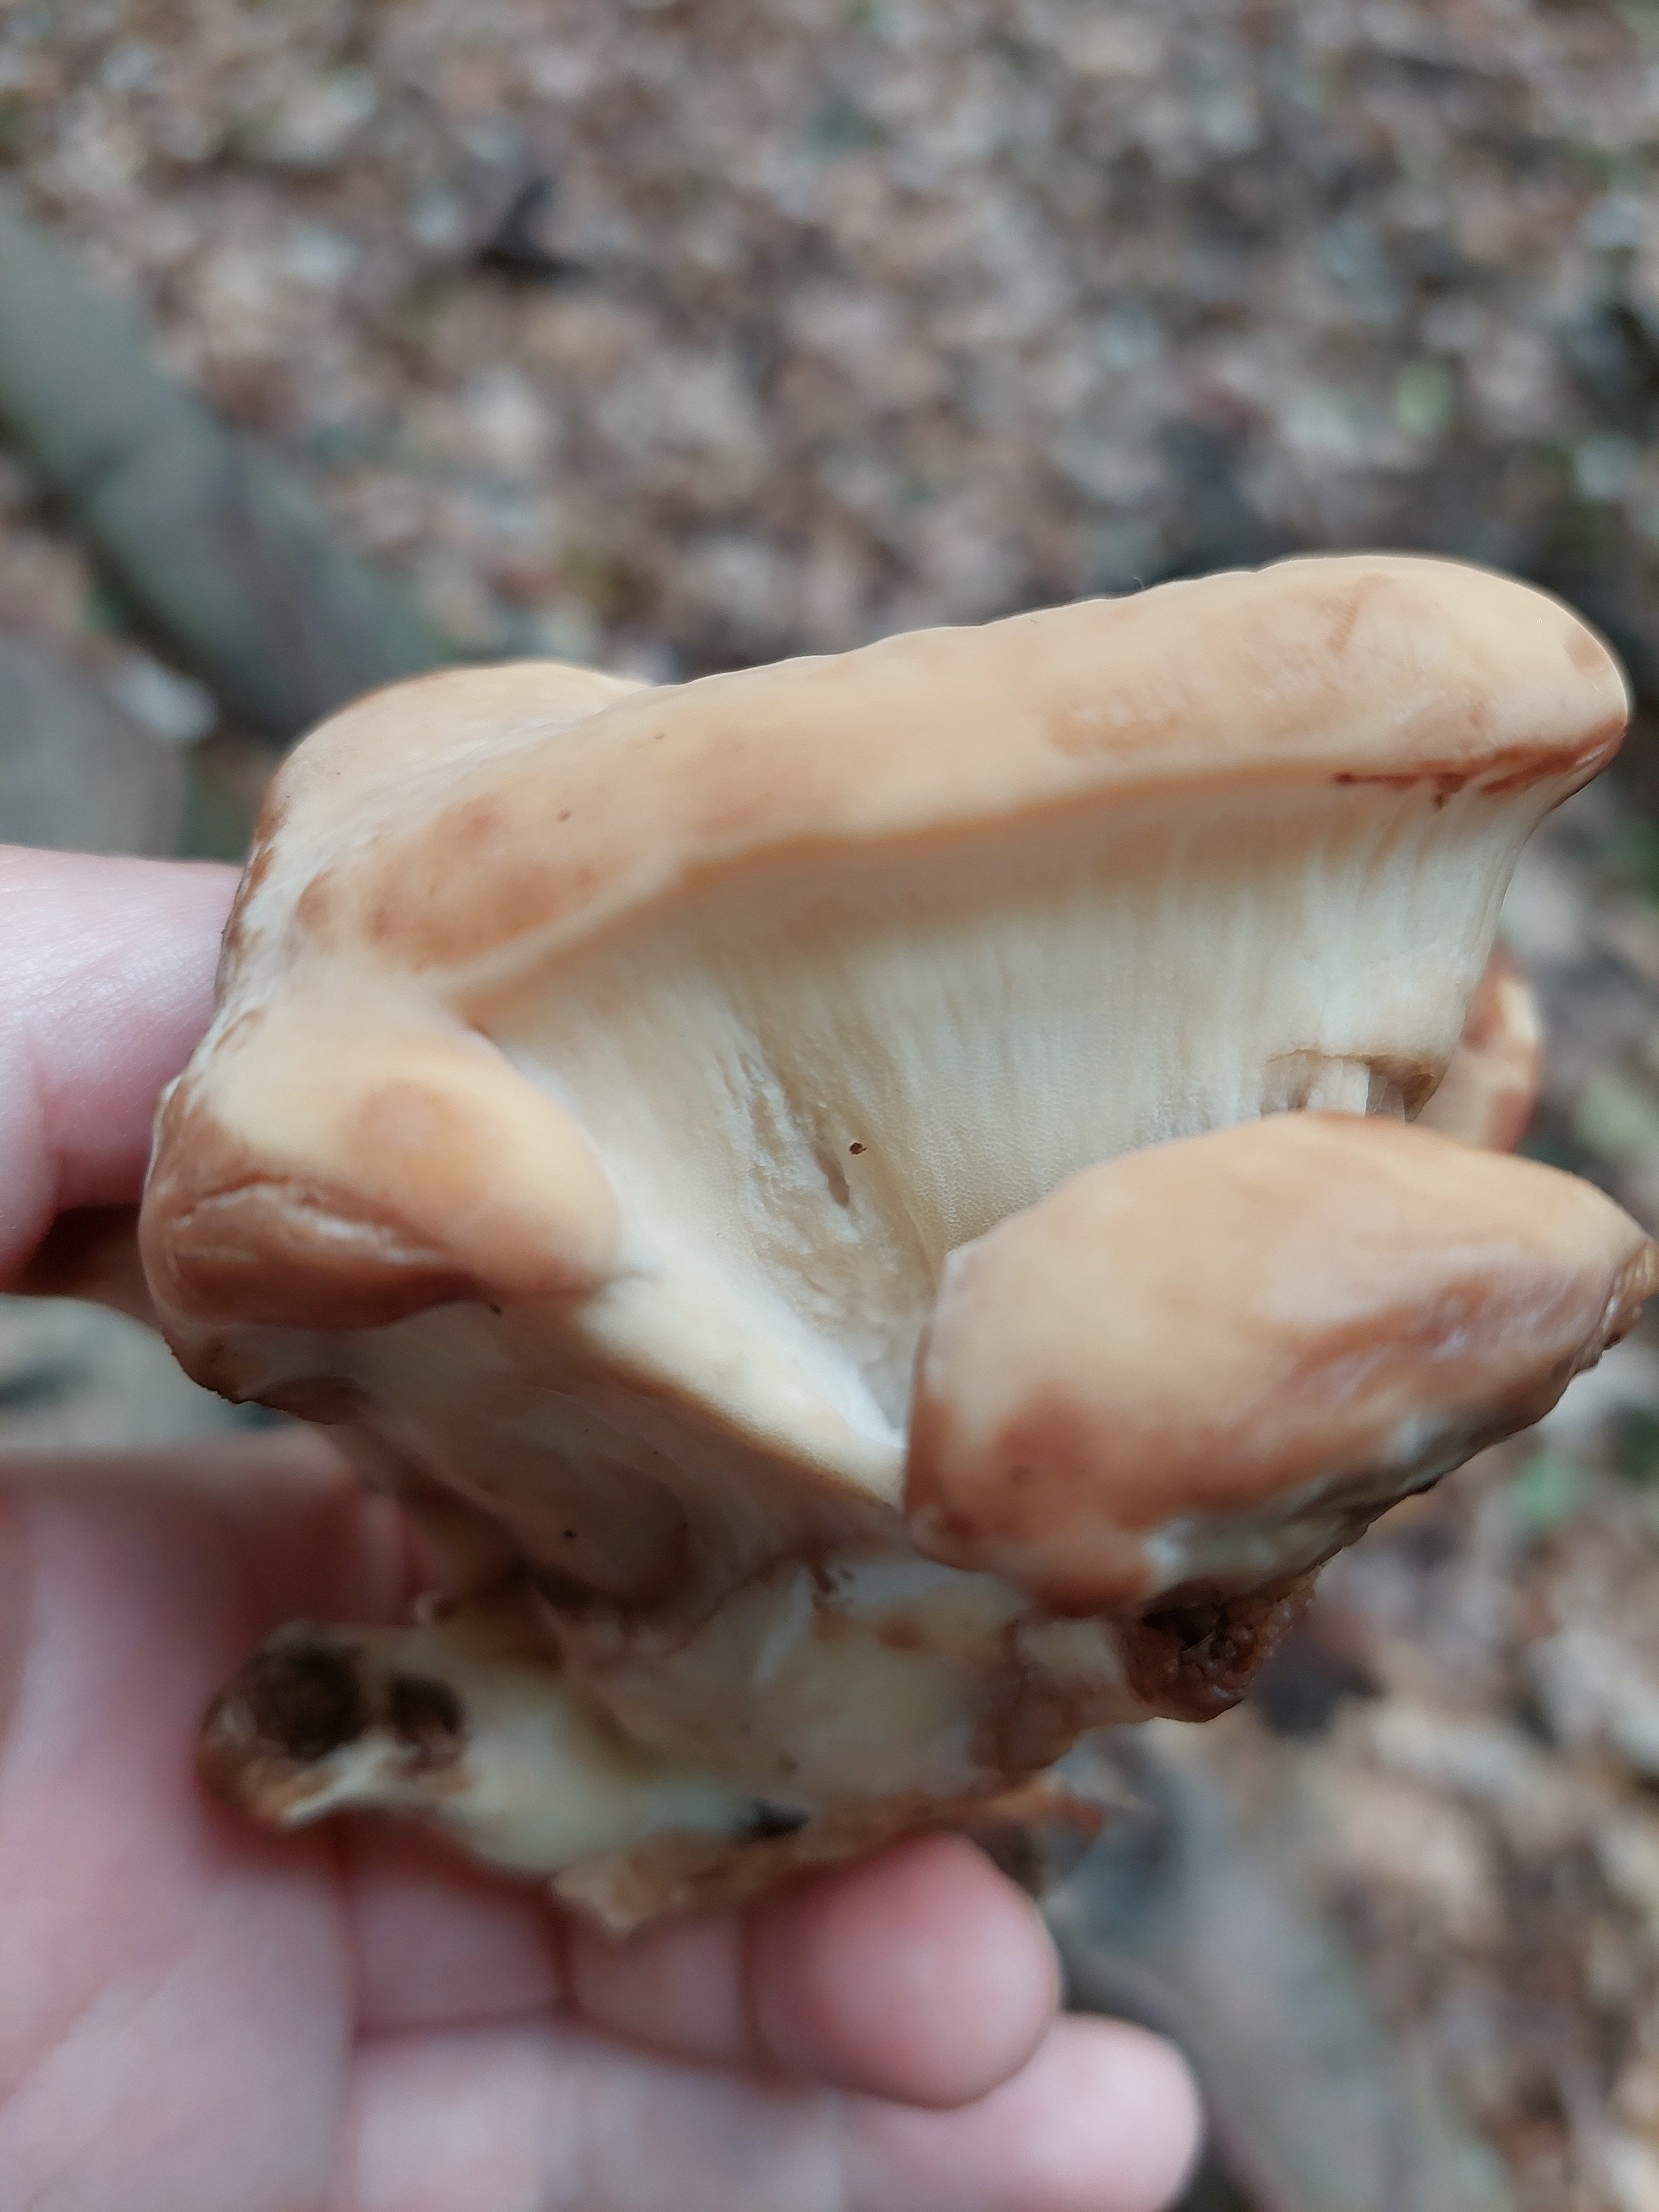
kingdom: Fungi
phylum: Basidiomycota
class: Agaricomycetes
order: Polyporales
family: Meripilaceae
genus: Meripilus
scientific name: Meripilus giganteus
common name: kæmpeporesvamp
